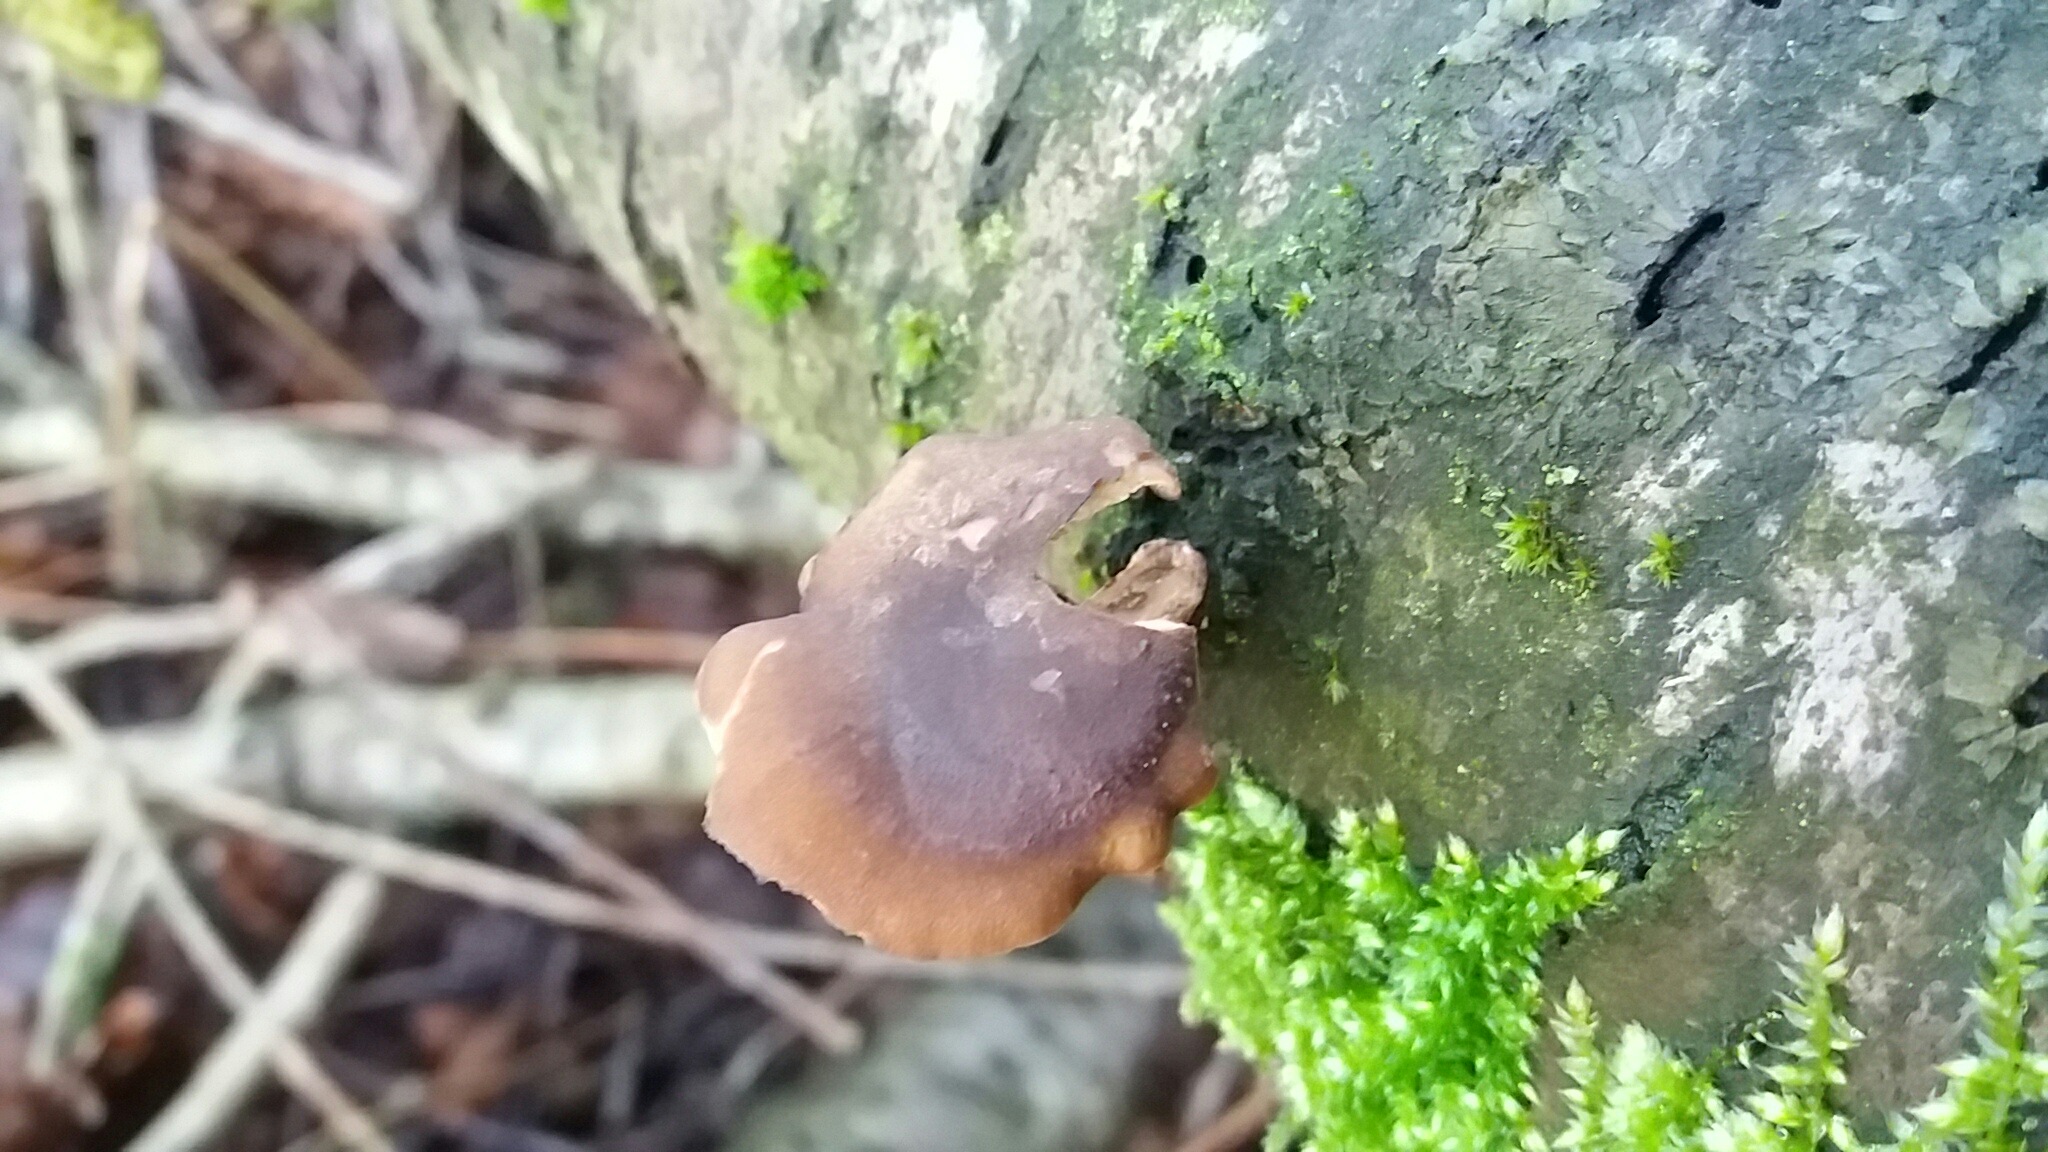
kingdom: Fungi
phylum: Basidiomycota
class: Agaricomycetes
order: Polyporales
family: Polyporaceae
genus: Lentinus
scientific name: Lentinus brumalis
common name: vinter-stilkporesvamp
